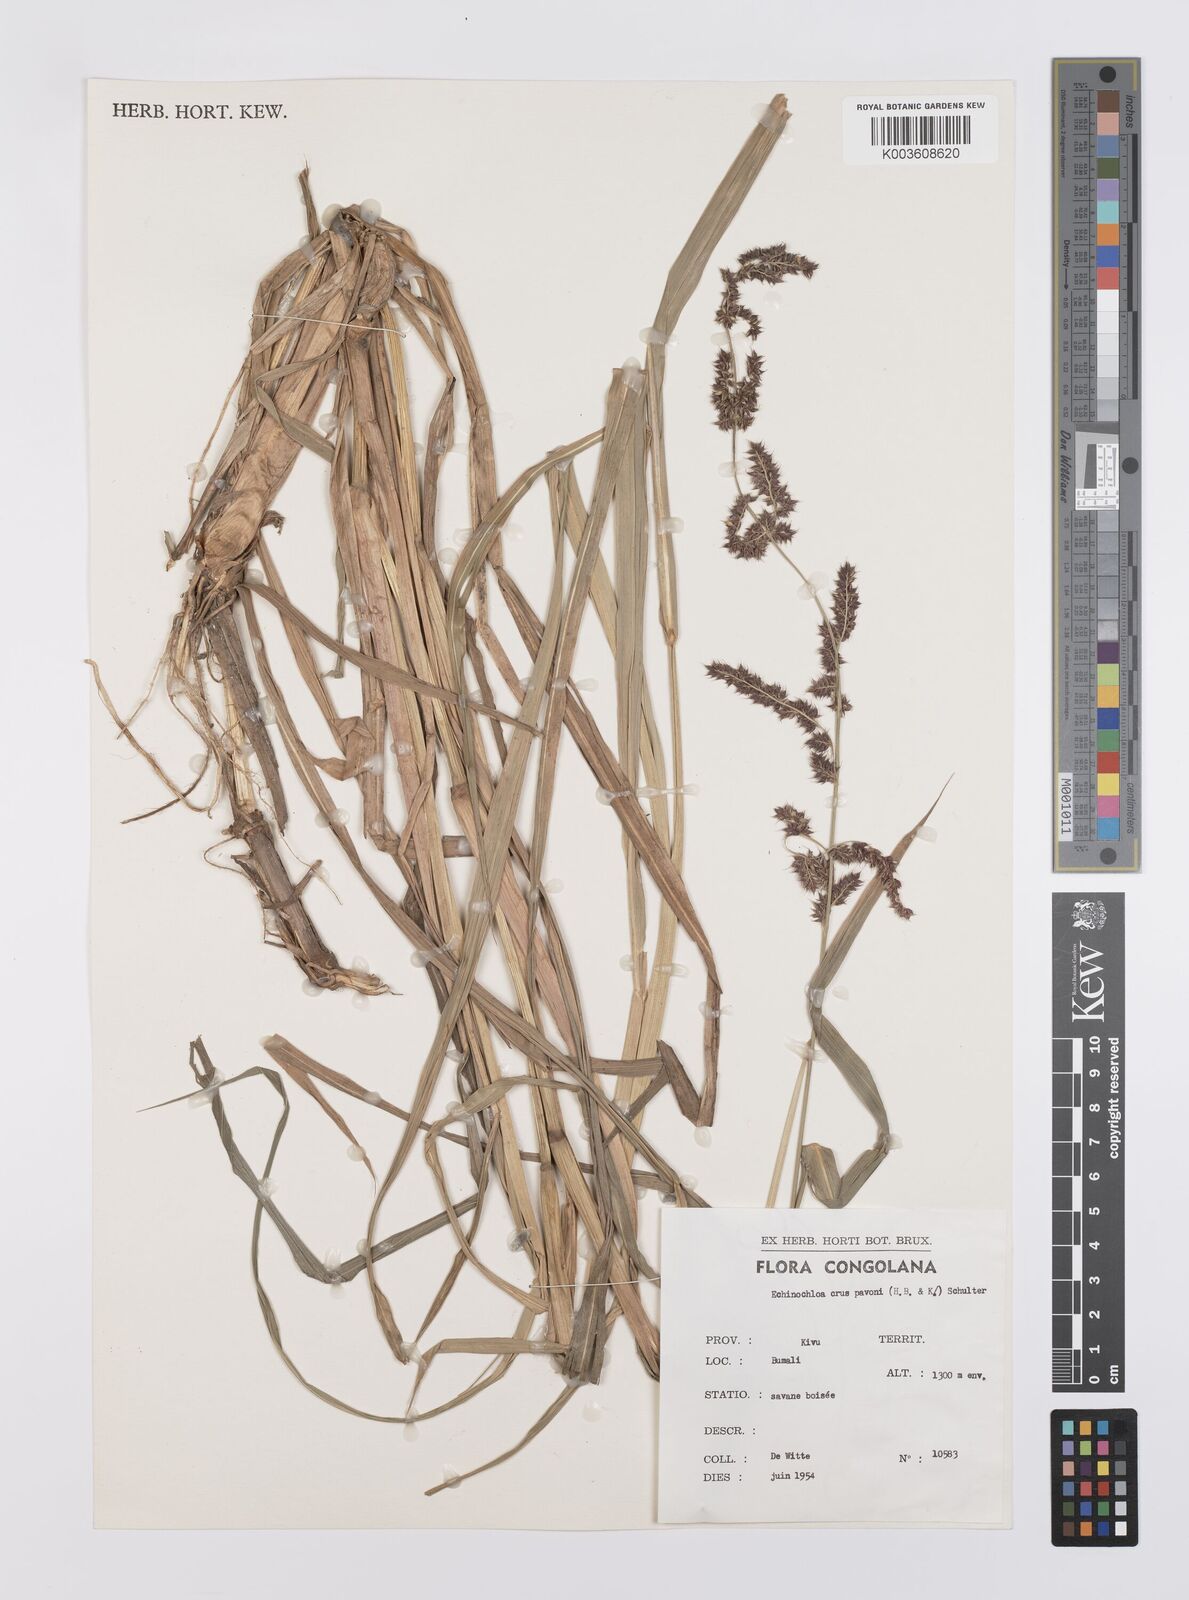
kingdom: Plantae
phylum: Tracheophyta
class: Liliopsida
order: Poales
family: Poaceae
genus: Echinochloa
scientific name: Echinochloa crus-pavonis
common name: Gulf cockspur grass
